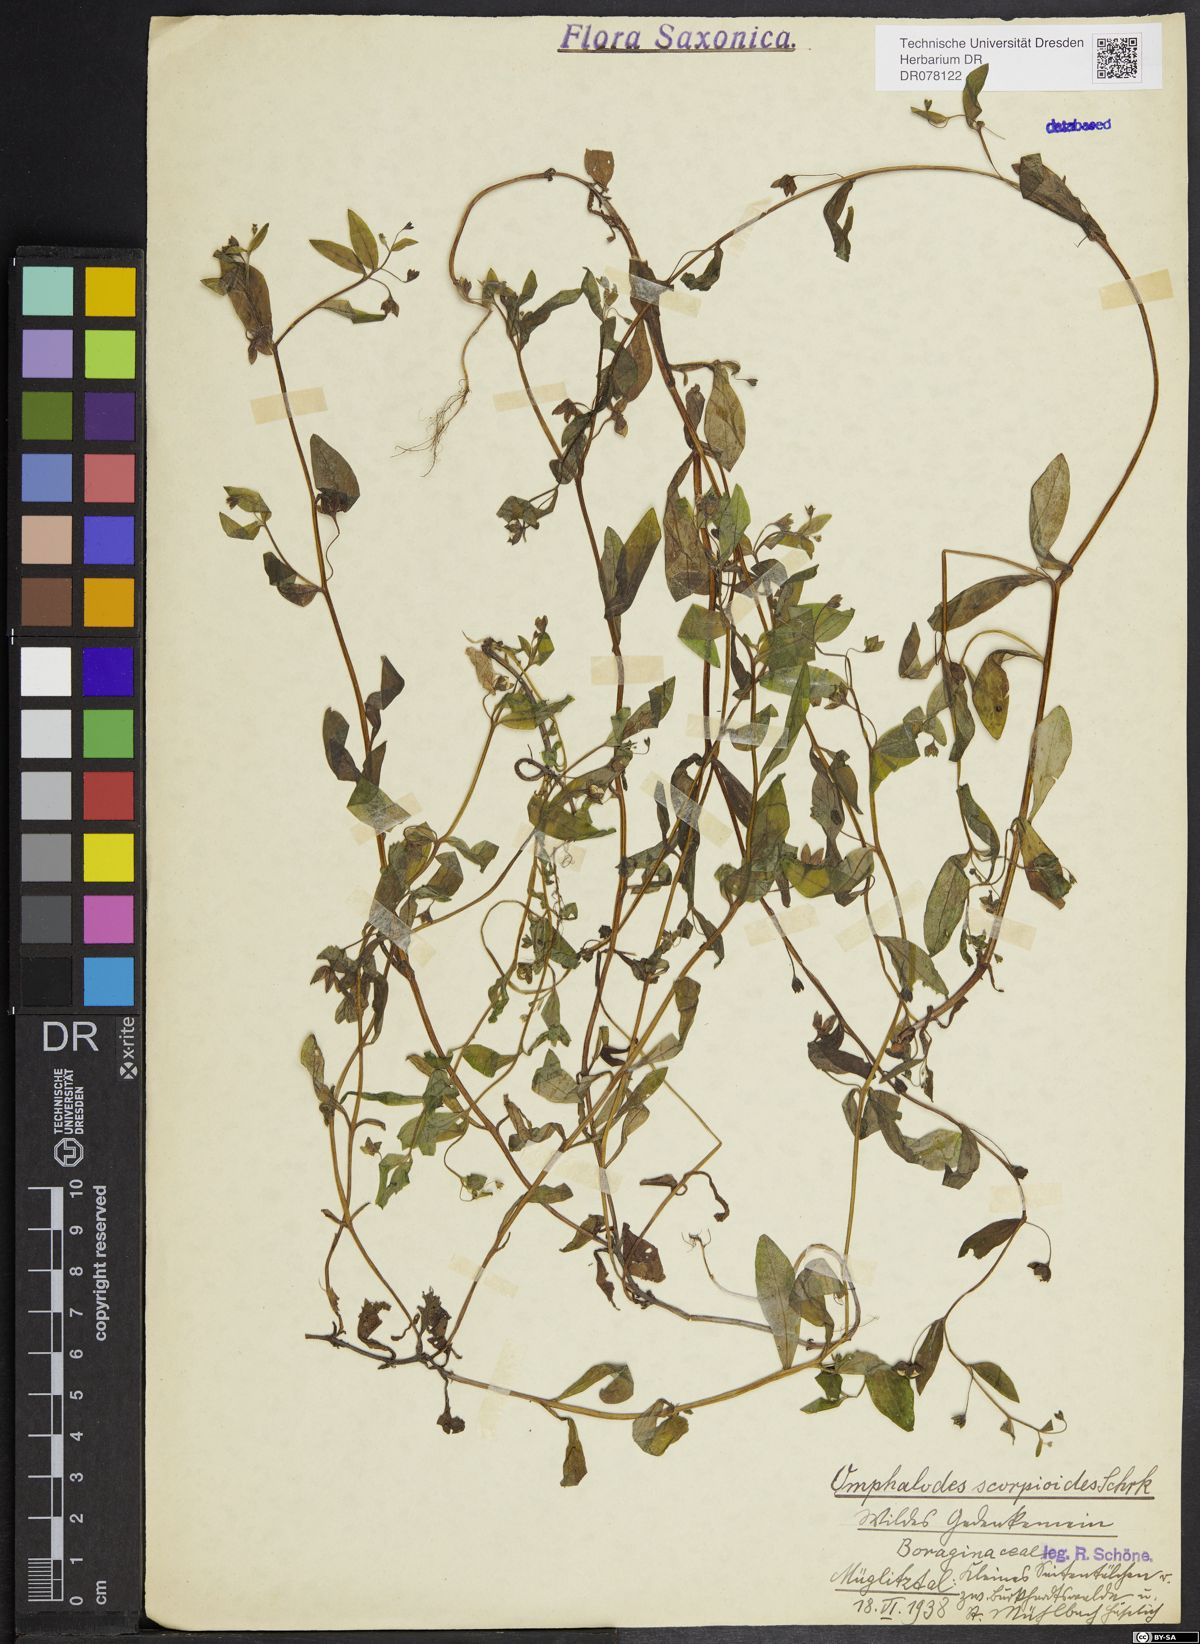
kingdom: Plantae
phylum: Tracheophyta
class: Magnoliopsida
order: Boraginales
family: Boraginaceae
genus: Memoremea
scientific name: Memoremea scorpioides
